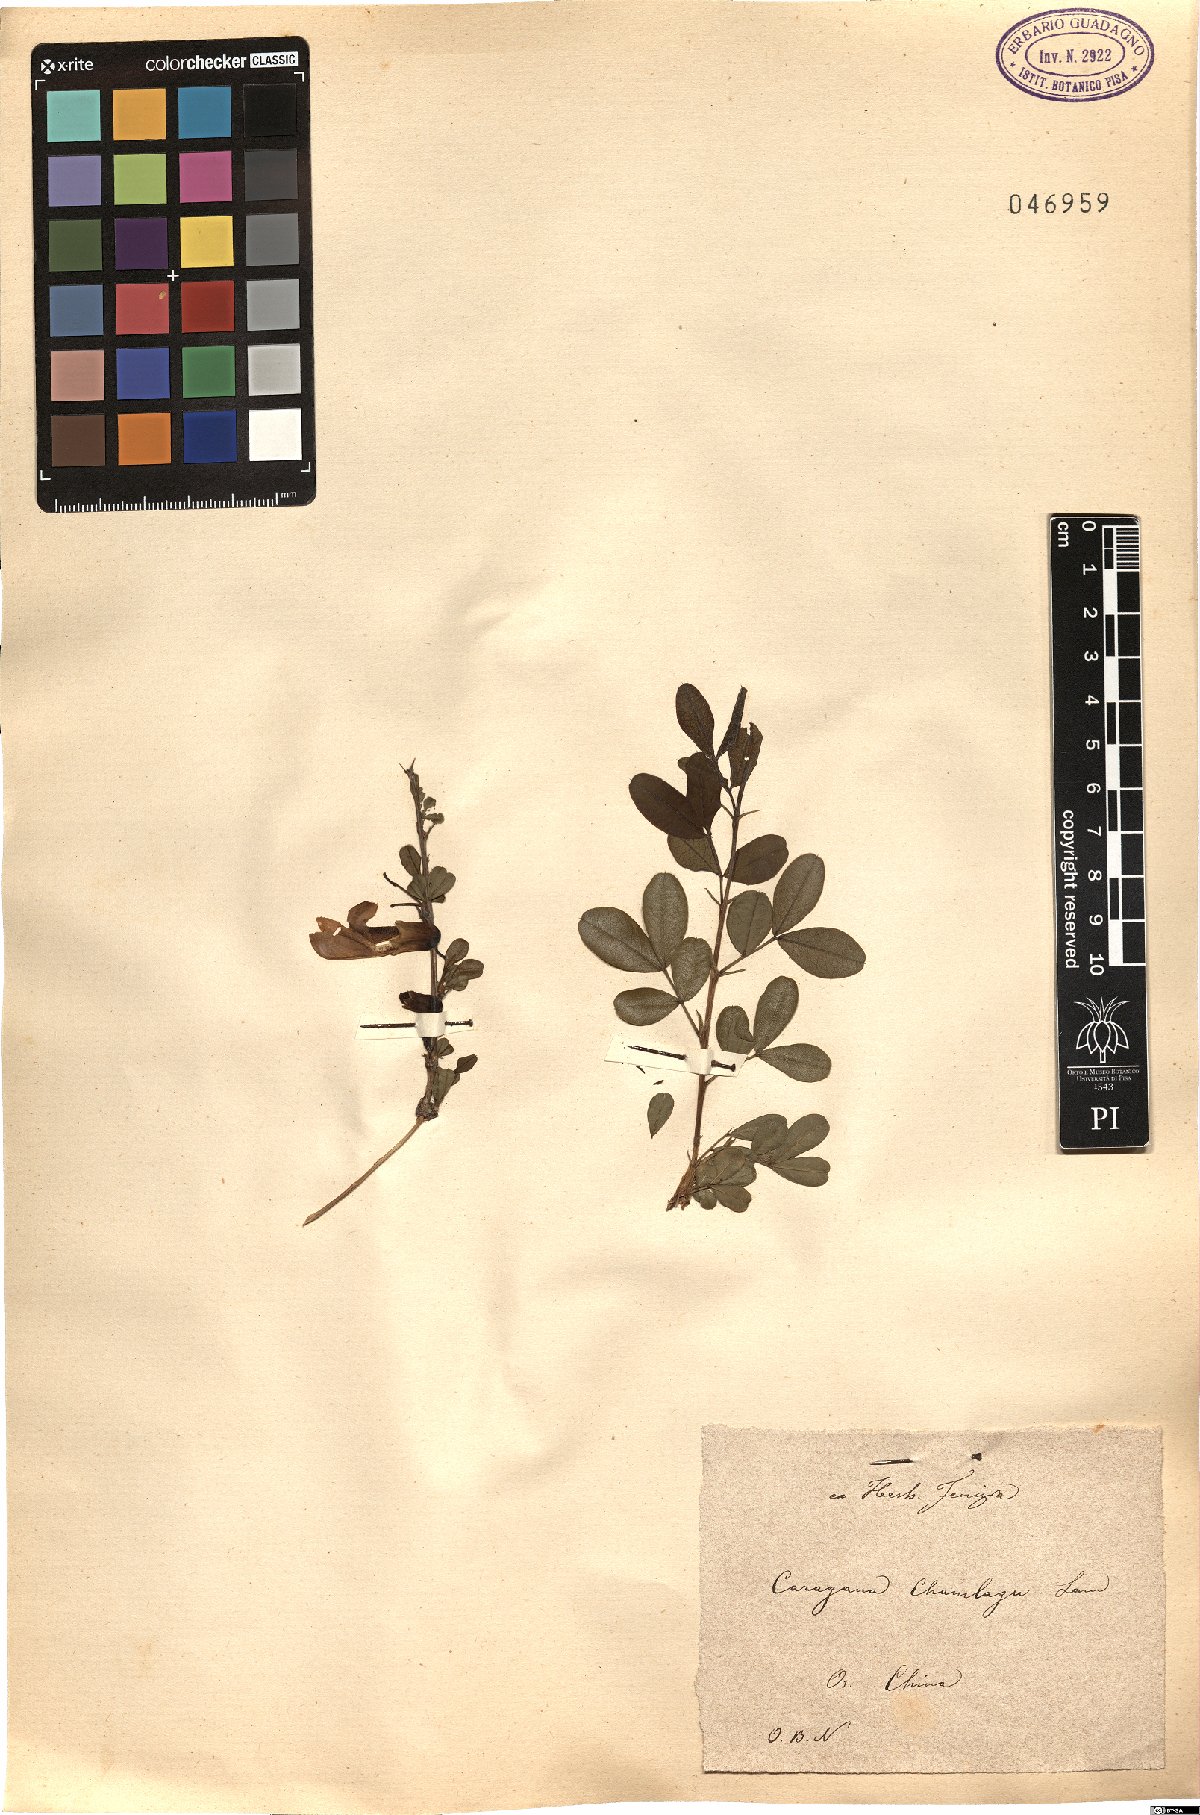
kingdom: Plantae
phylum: Tracheophyta
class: Magnoliopsida
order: Fabales
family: Fabaceae
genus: Caragana
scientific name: Caragana sinica
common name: Chinese peatree
